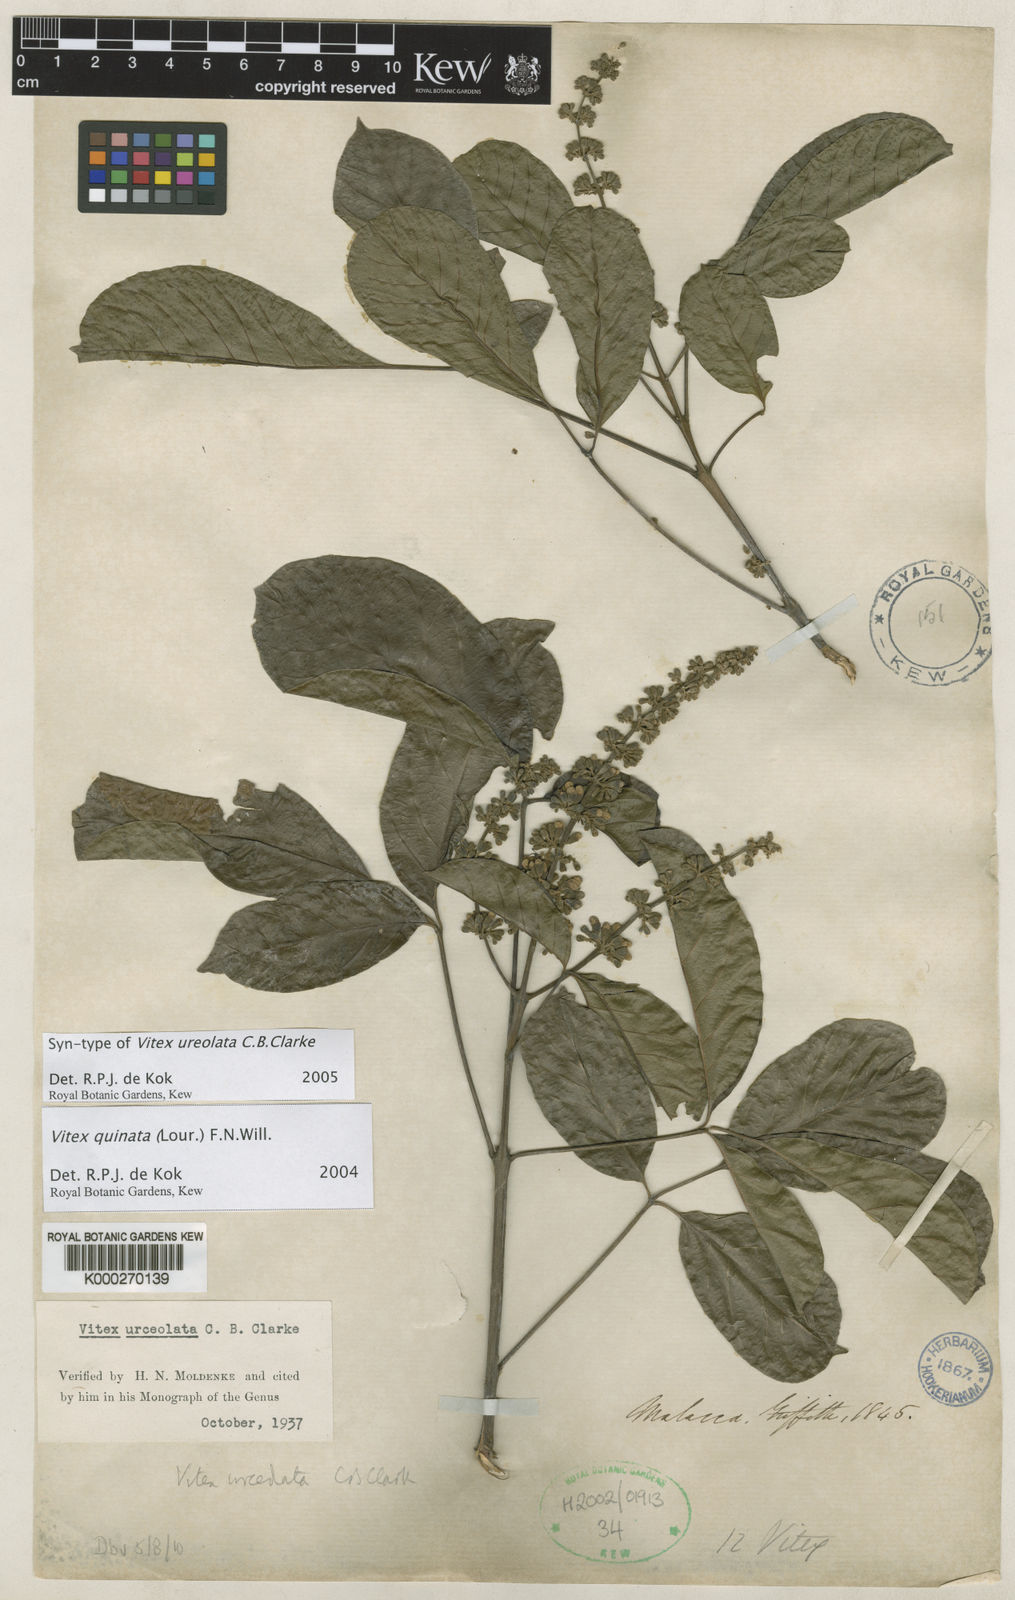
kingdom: Plantae
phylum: Tracheophyta
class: Magnoliopsida
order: Lamiales
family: Lamiaceae
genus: Vitex
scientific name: Vitex quinata
